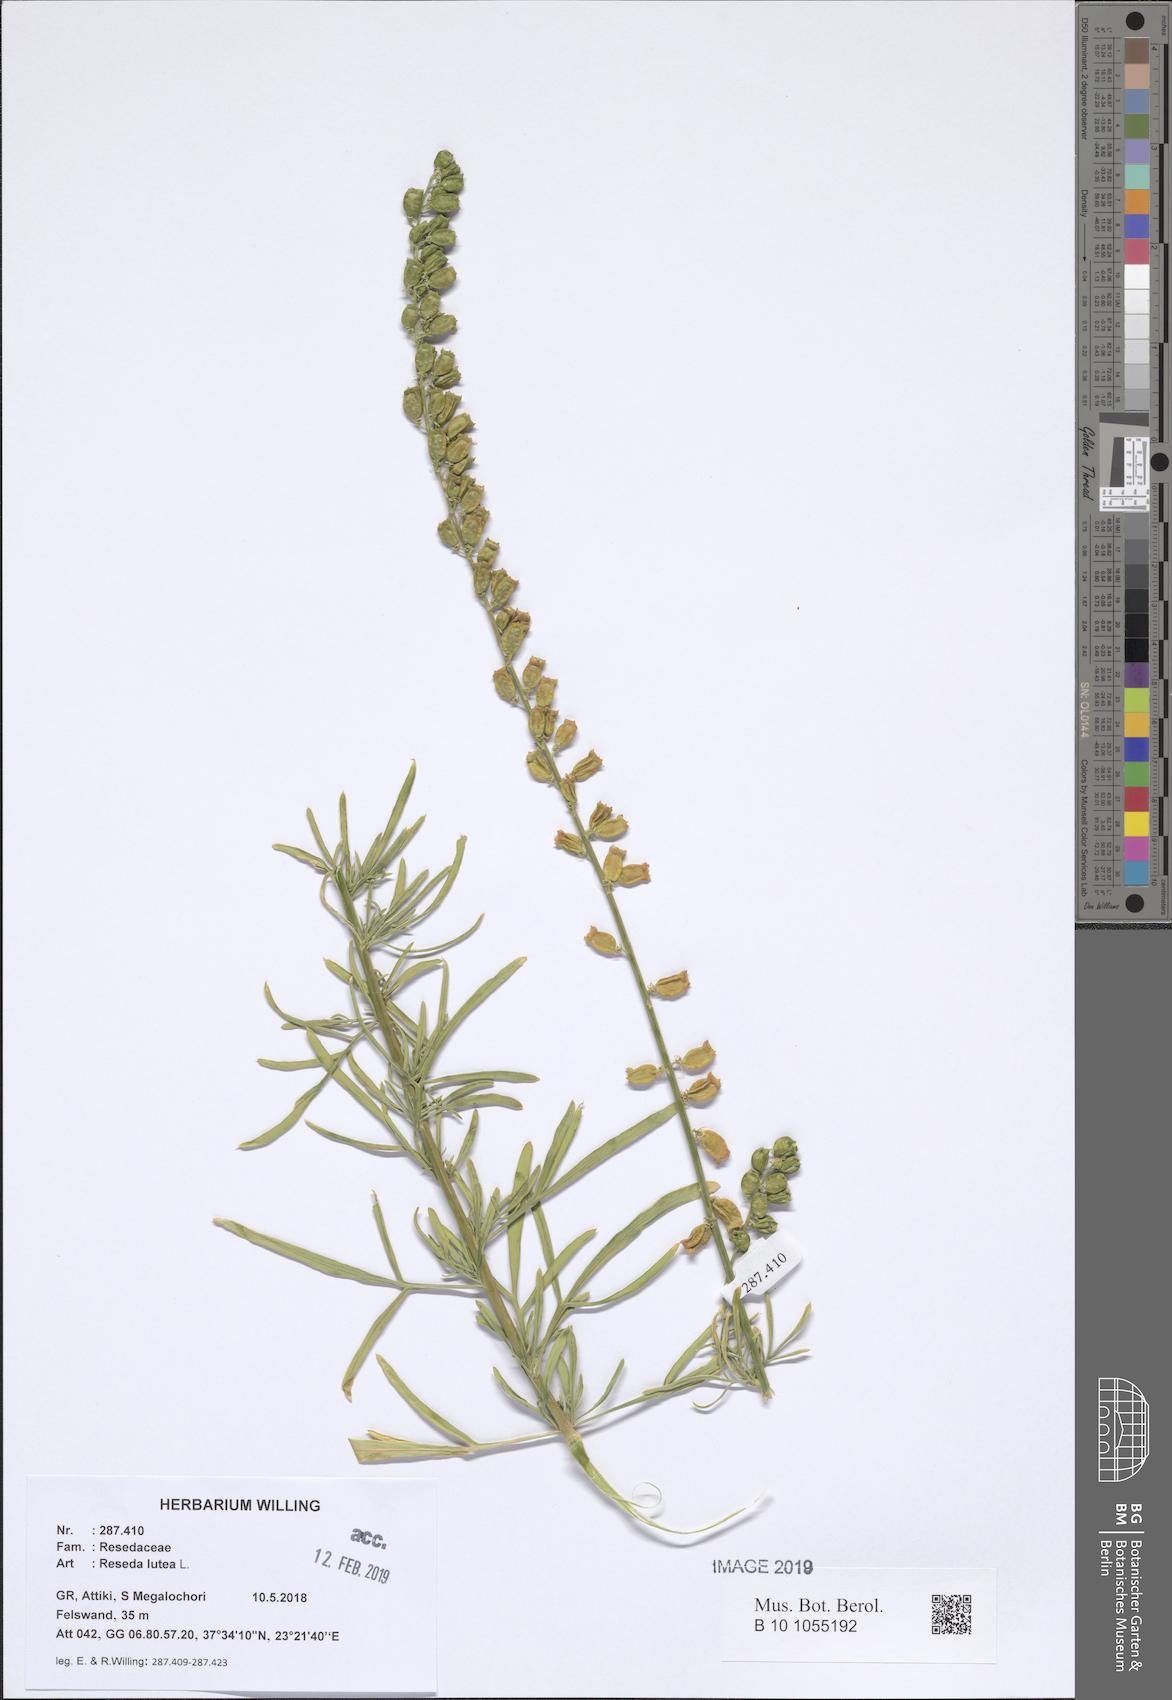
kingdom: Plantae
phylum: Tracheophyta
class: Magnoliopsida
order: Brassicales
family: Resedaceae
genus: Reseda
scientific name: Reseda lutea
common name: Wild mignonette
